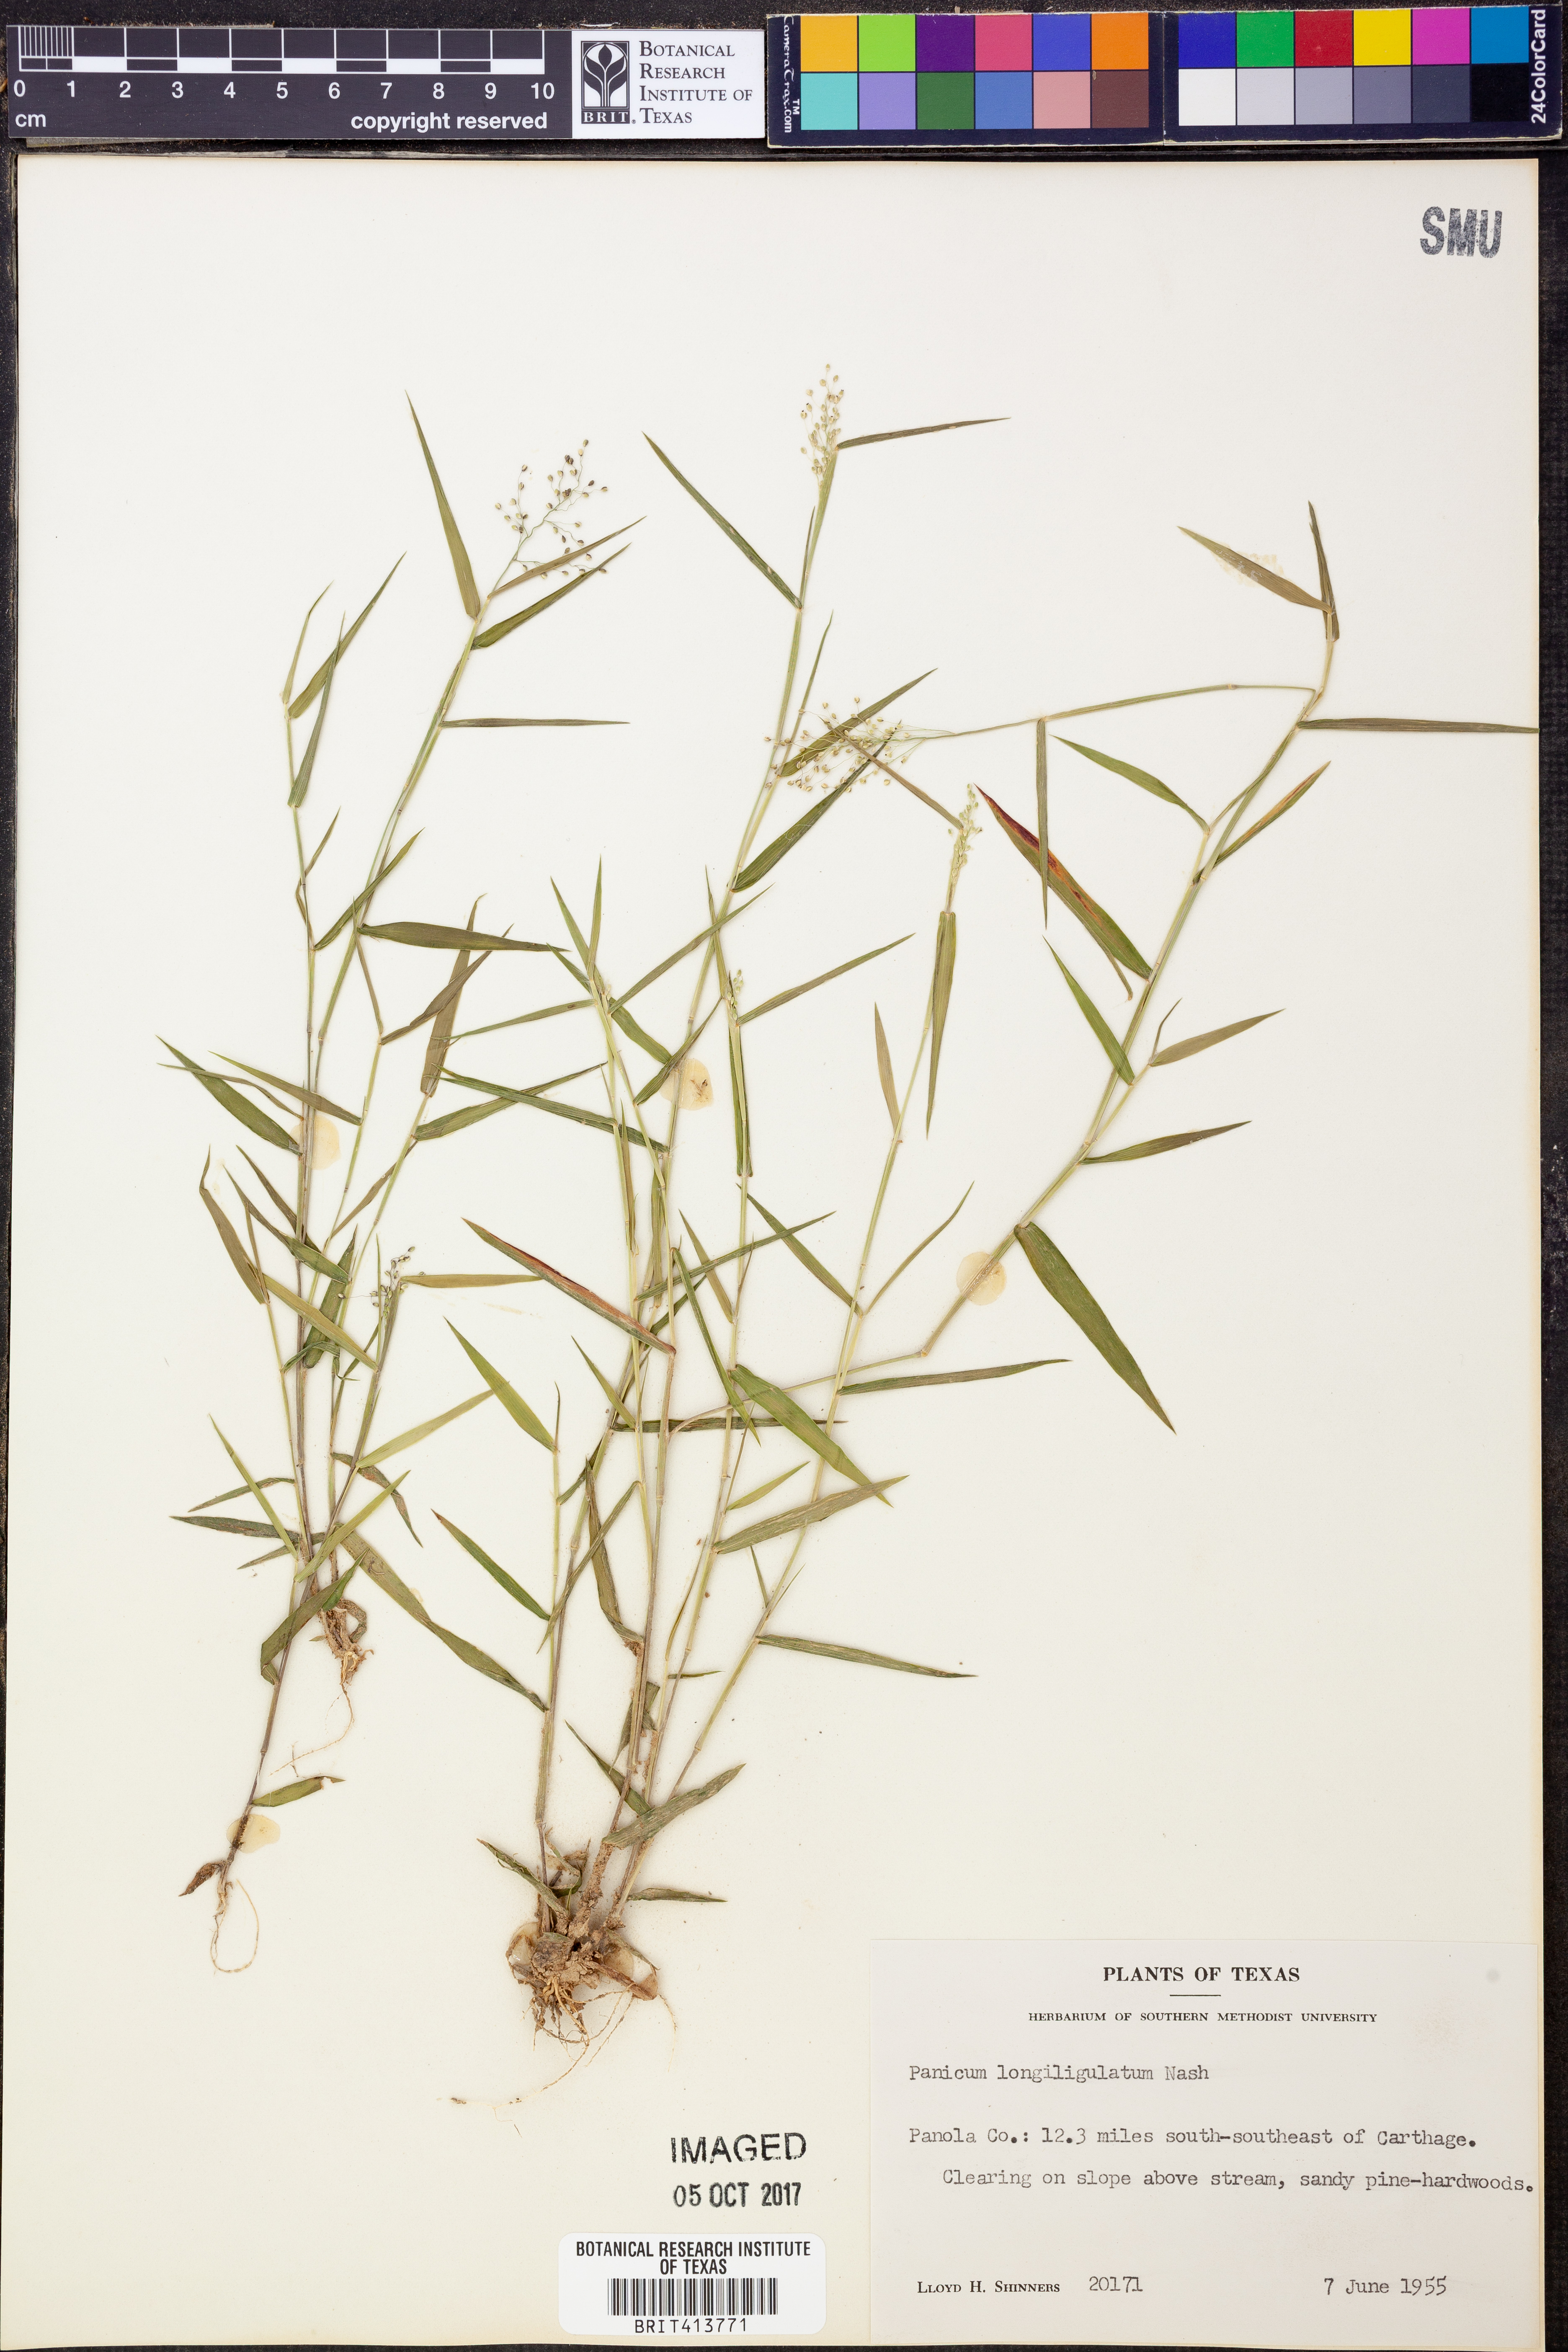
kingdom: Plantae
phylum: Tracheophyta
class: Liliopsida
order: Poales
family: Poaceae
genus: Dichanthelium
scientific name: Dichanthelium longiligulatum
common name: Long-ligule panicgrass
